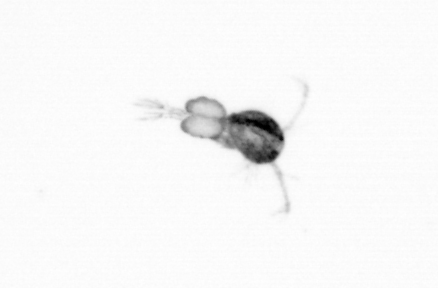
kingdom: Animalia
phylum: Arthropoda
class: Copepoda
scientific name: Copepoda
